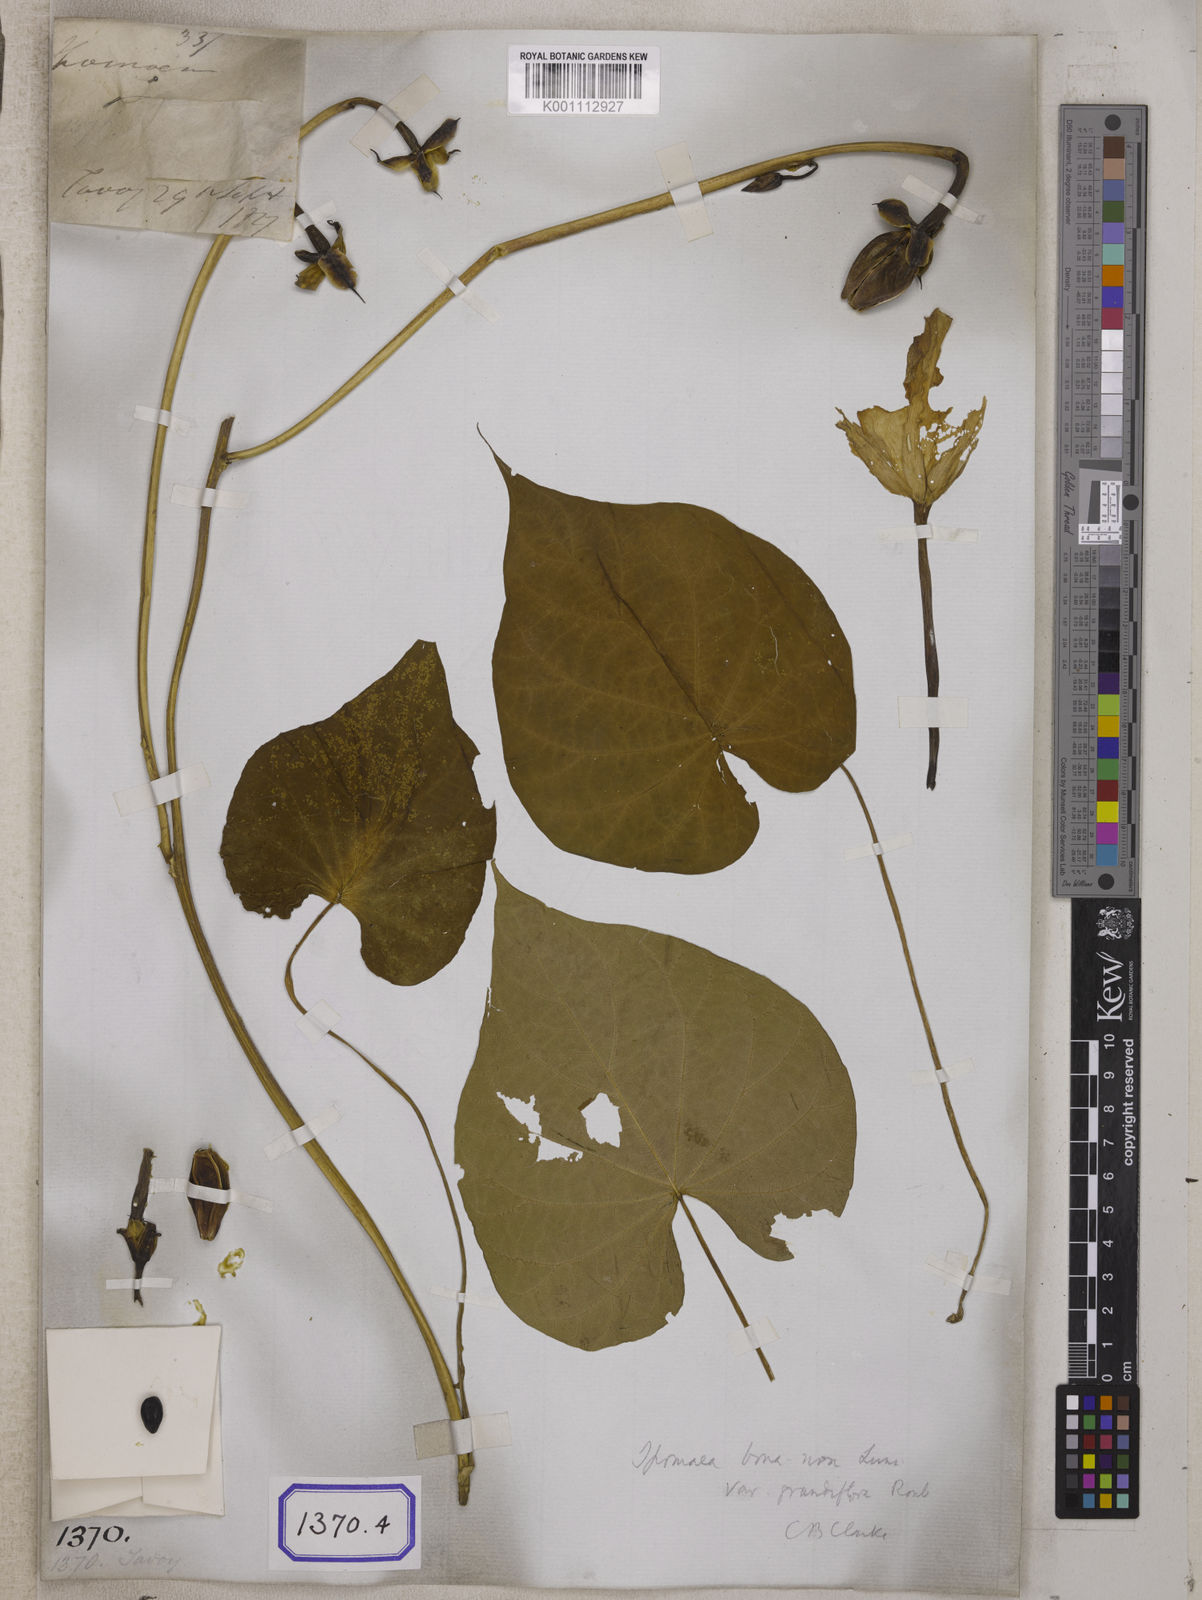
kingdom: Plantae
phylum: Tracheophyta
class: Magnoliopsida
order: Solanales
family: Convolvulaceae
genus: Convolvulus
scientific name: Convolvulus
